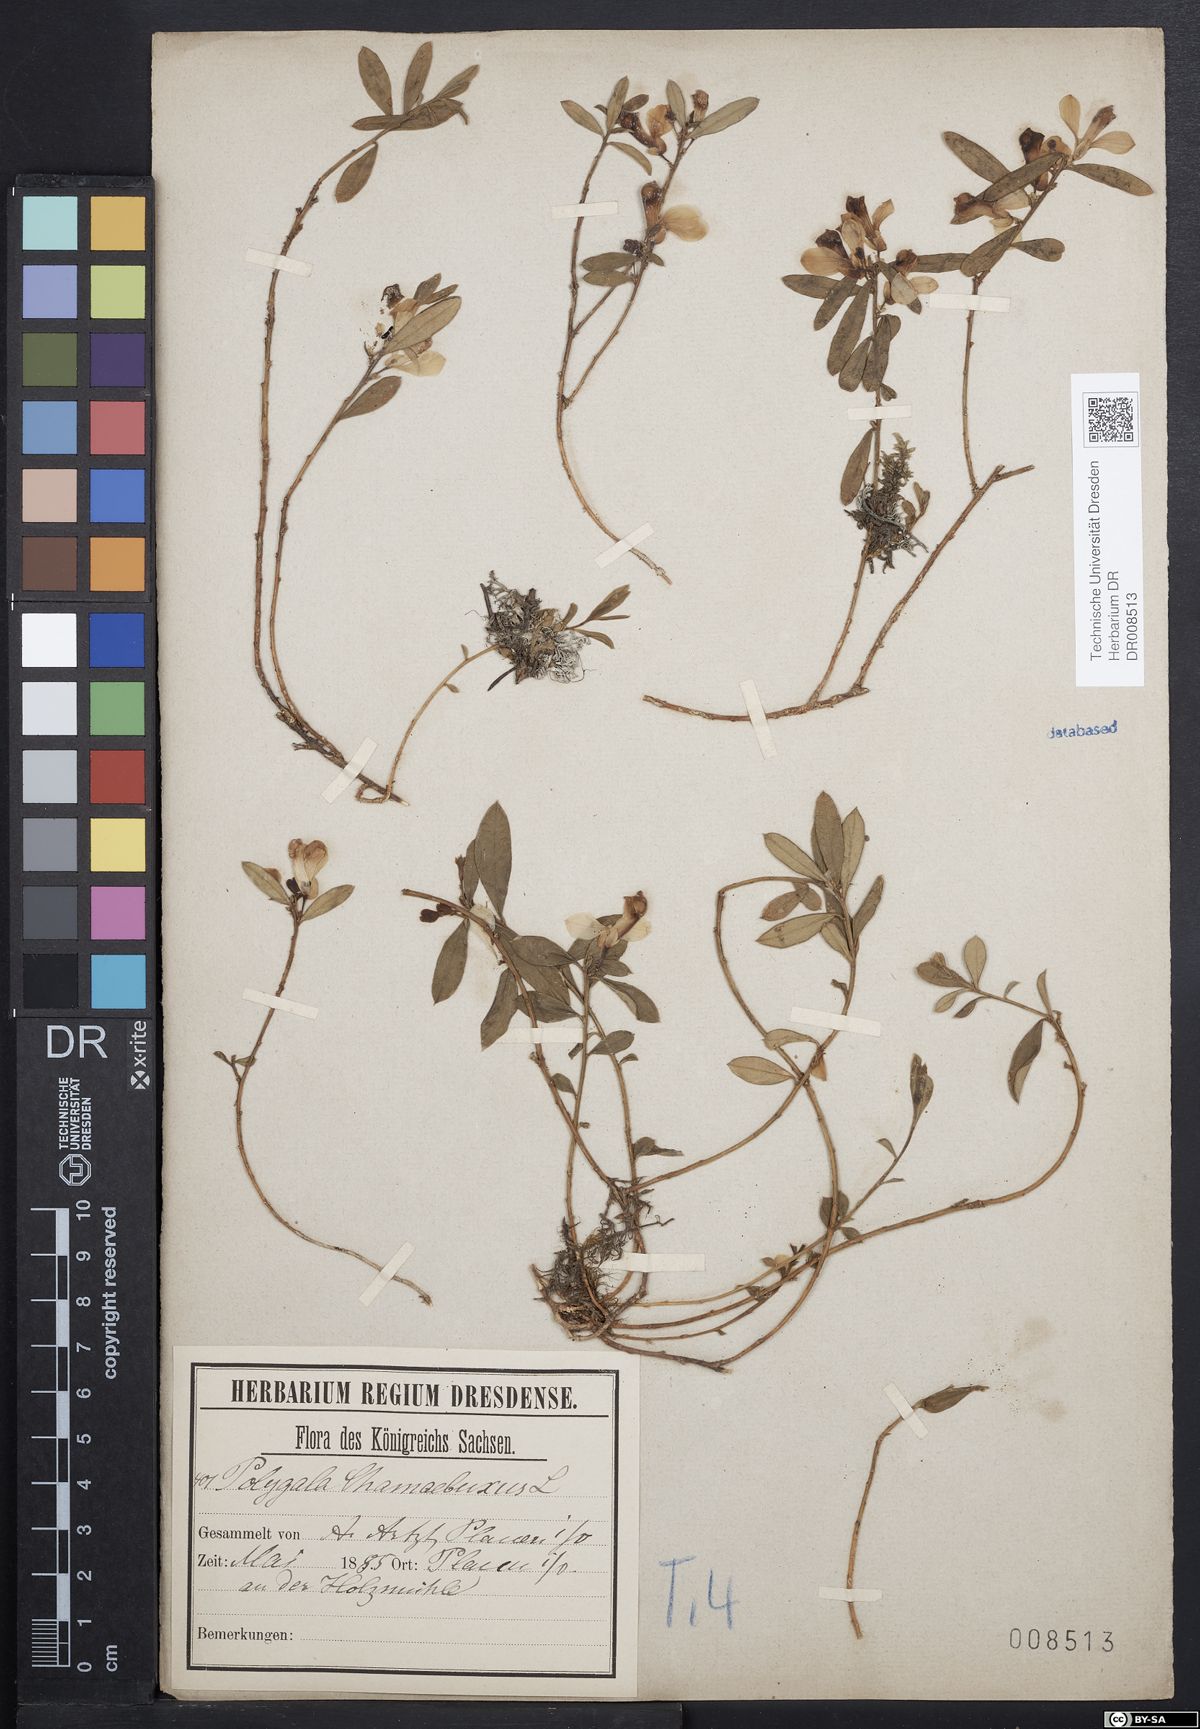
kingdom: Plantae
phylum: Tracheophyta
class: Magnoliopsida
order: Fabales
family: Polygalaceae
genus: Polygaloides
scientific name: Polygaloides chamaebuxus
